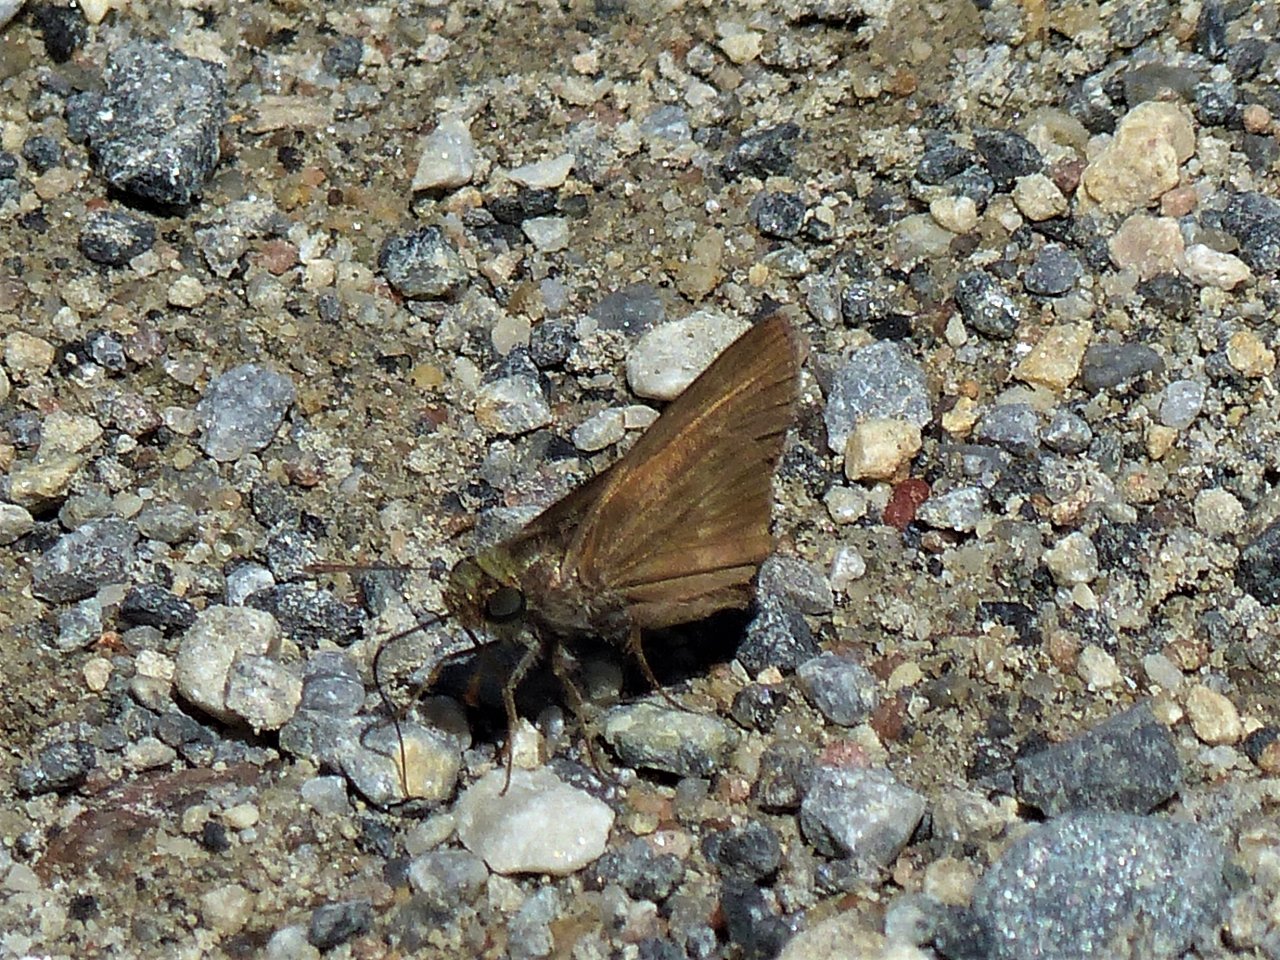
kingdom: Animalia
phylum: Arthropoda
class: Insecta
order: Lepidoptera
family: Hesperiidae
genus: Euphyes
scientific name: Euphyes vestris
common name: Dun Skipper
